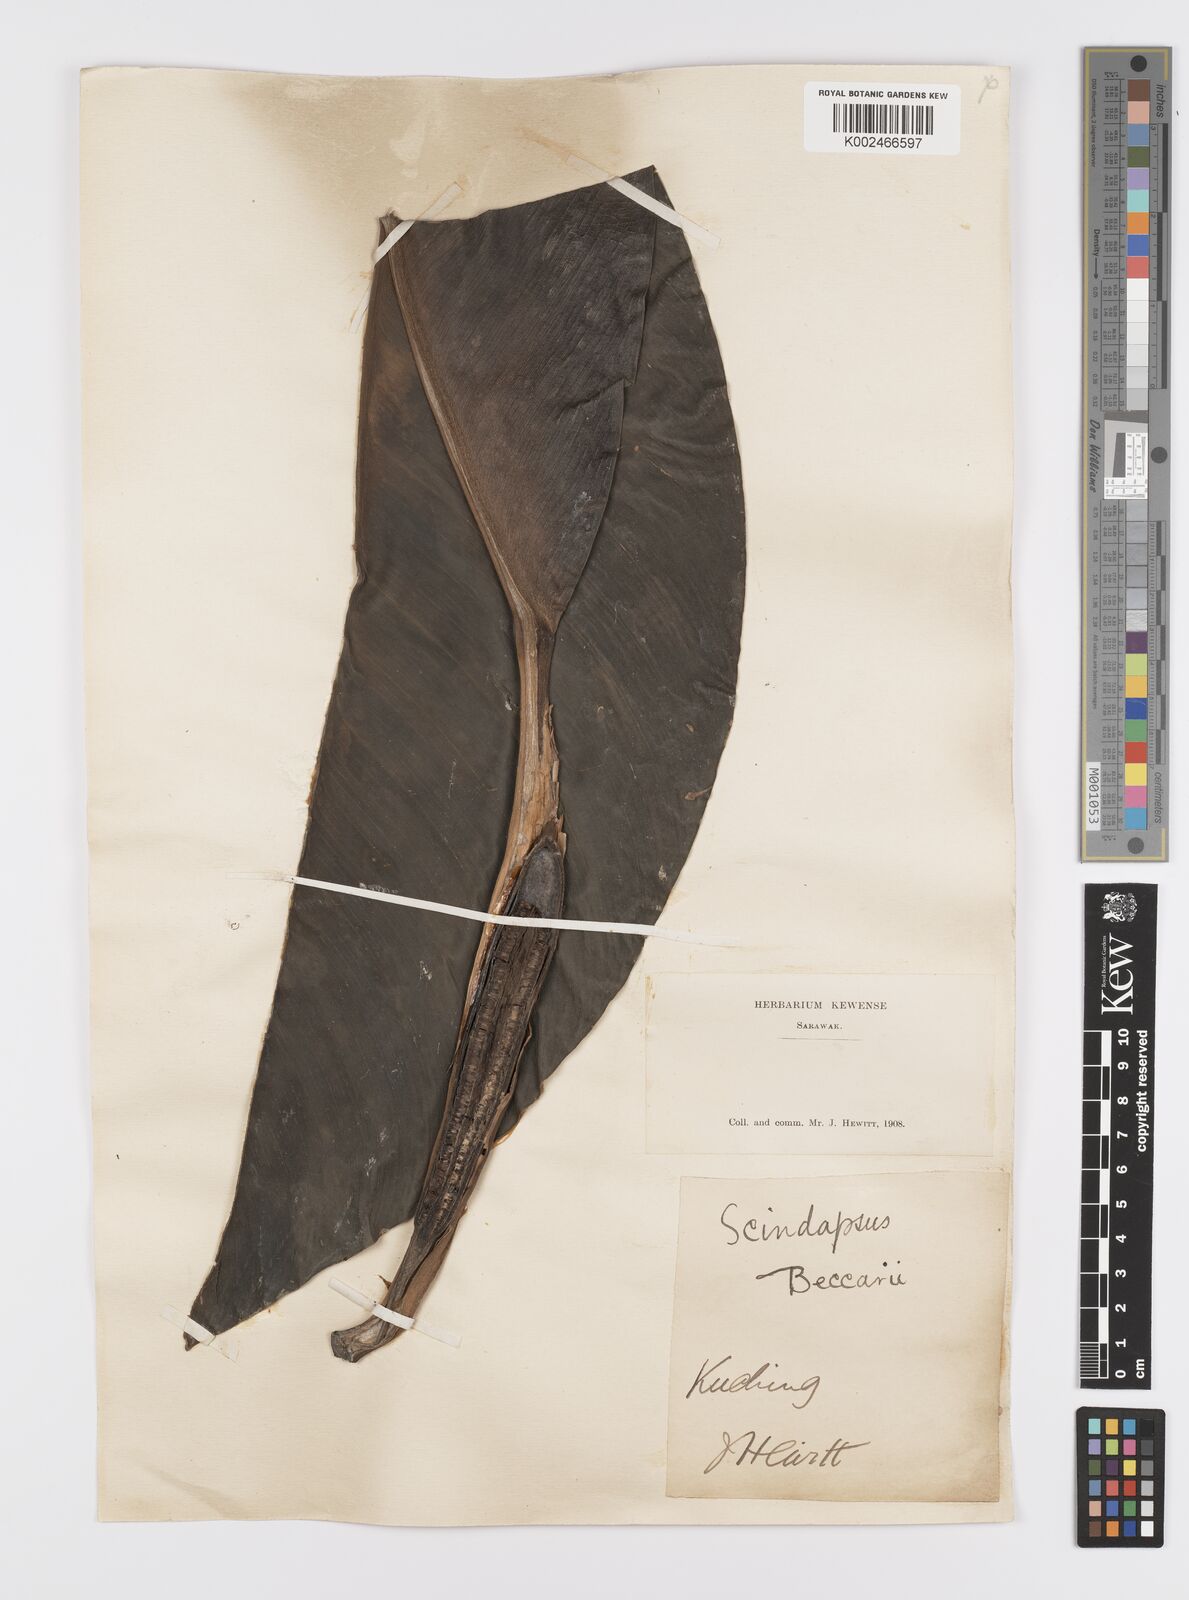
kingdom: Plantae
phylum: Tracheophyta
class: Liliopsida
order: Alismatales
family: Araceae
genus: Scindapsus
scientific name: Scindapsus beccarii
